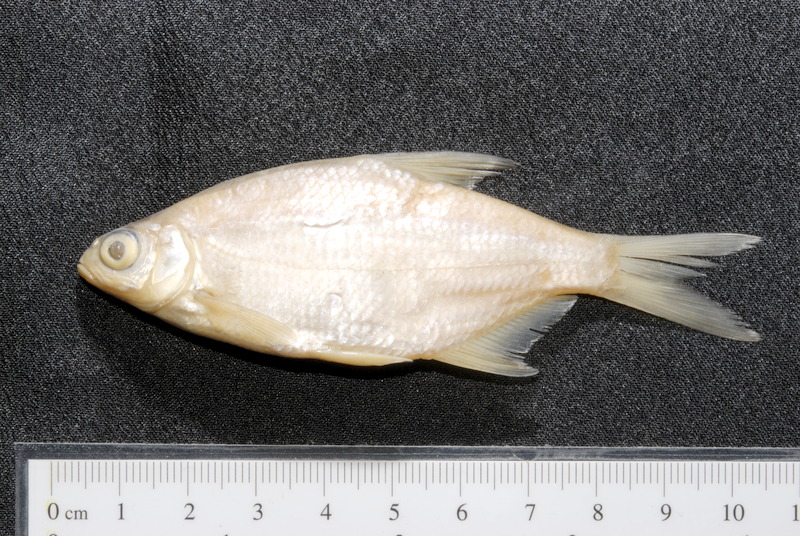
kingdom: Animalia
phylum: Chordata
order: Cypriniformes
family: Cyprinidae
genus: Blicca
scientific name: Blicca bjoerkna
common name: White bream
